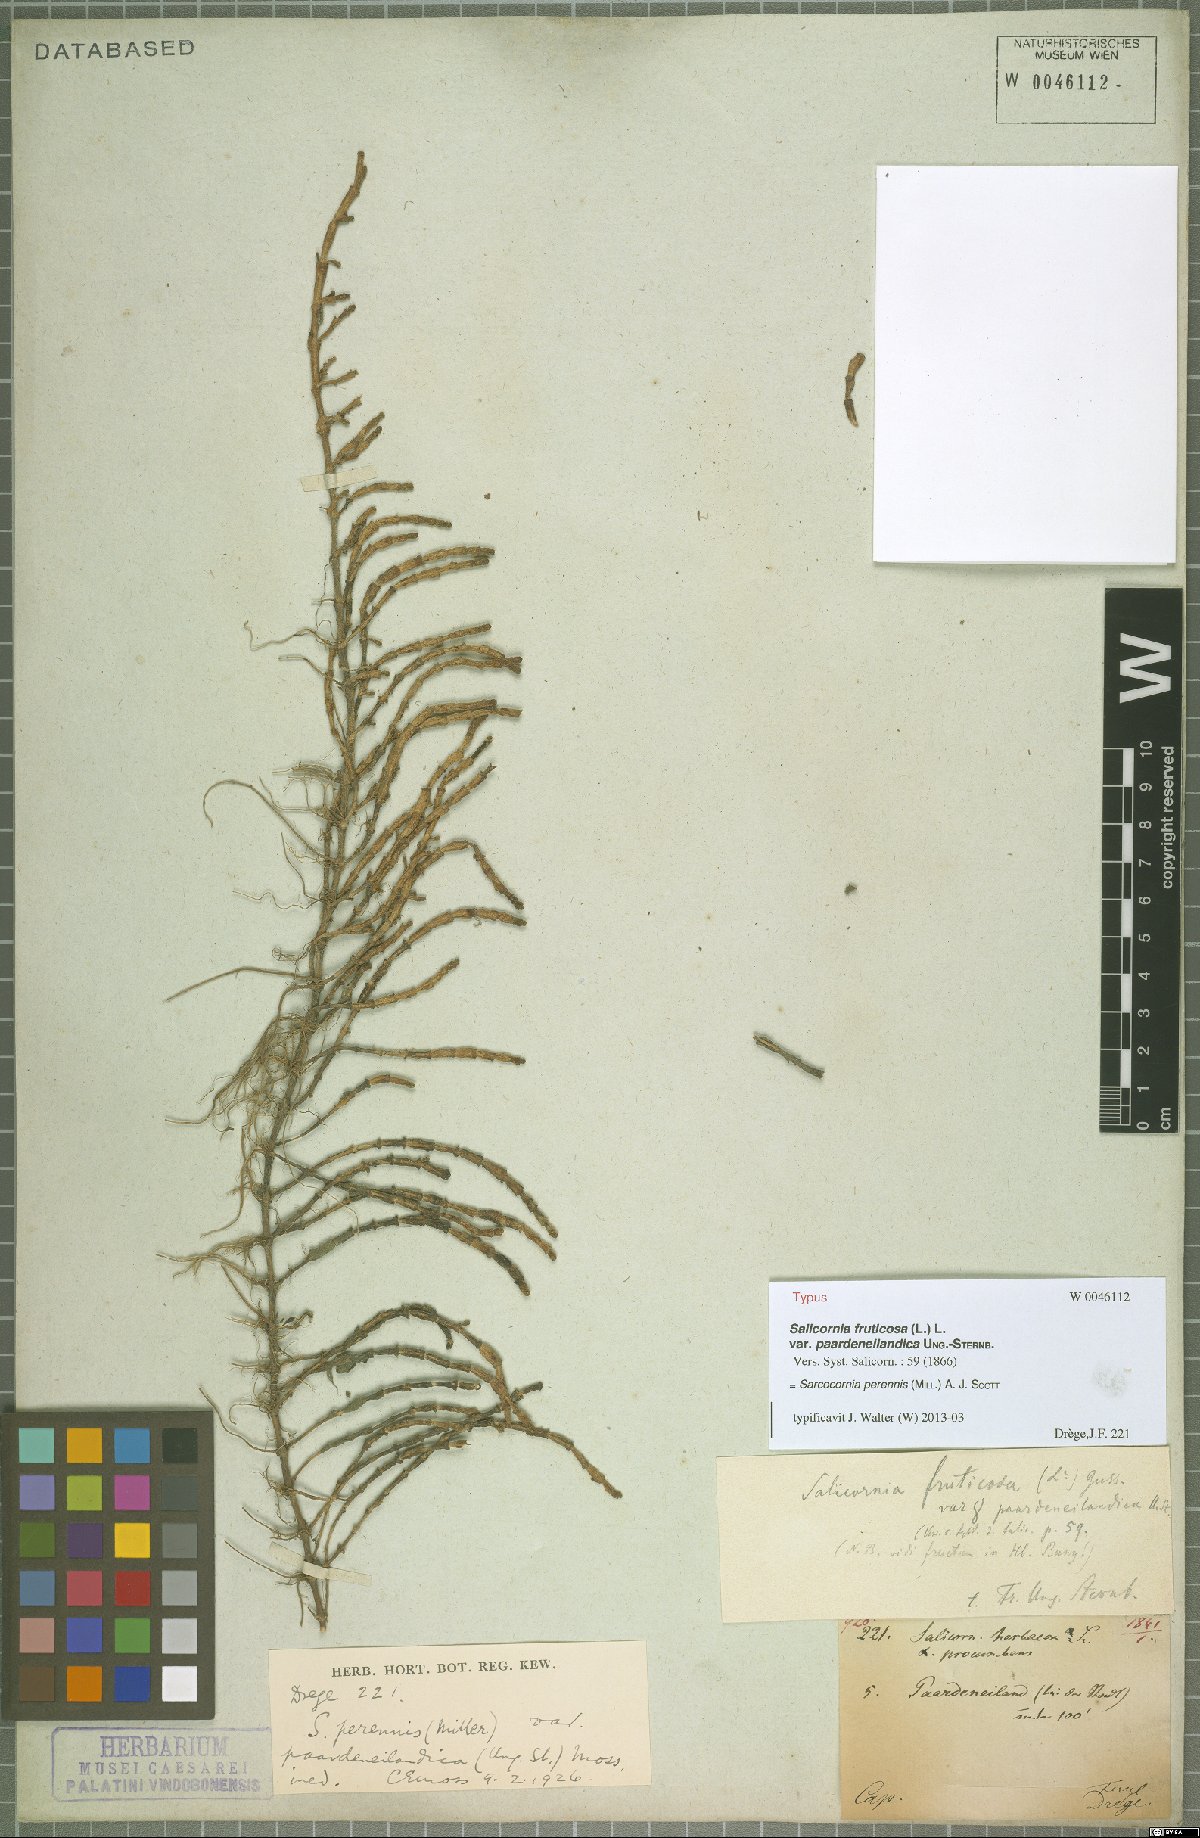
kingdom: Plantae
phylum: Tracheophyta
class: Magnoliopsida
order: Caryophyllales
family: Amaranthaceae
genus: Salicornia
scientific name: Salicornia perennis
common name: Chicken claws
